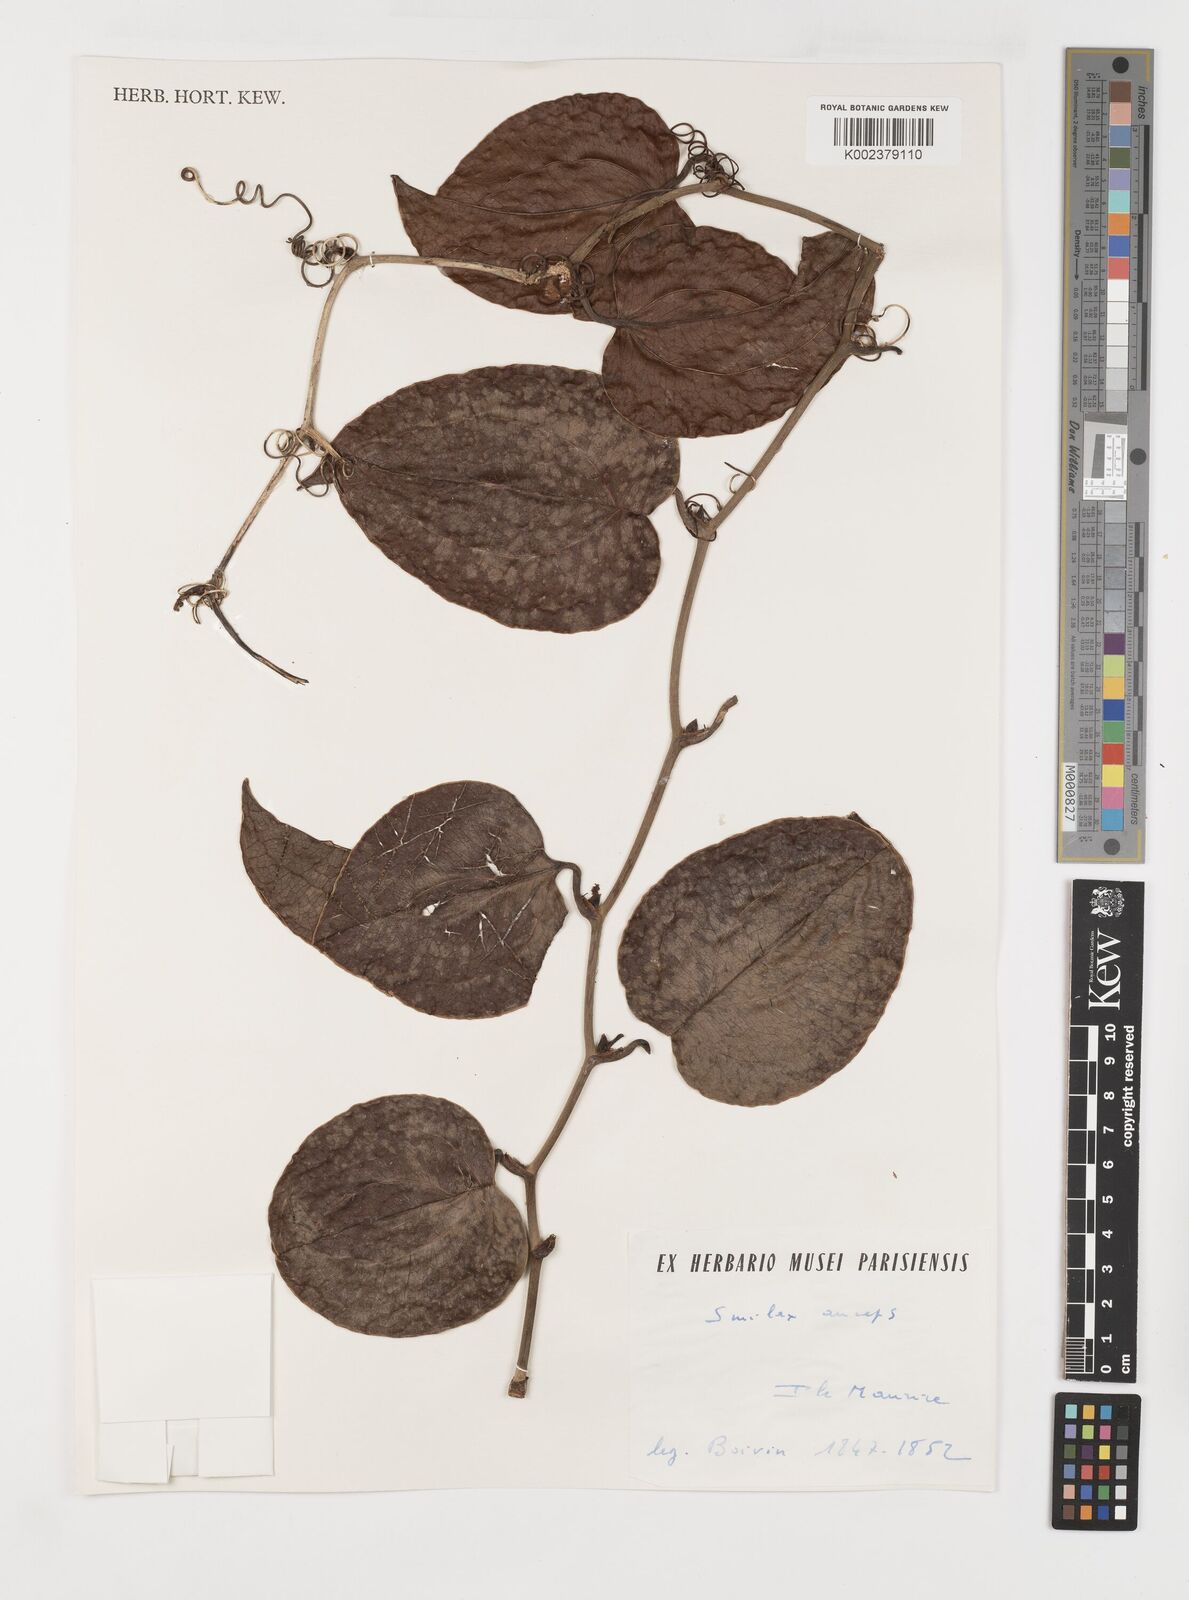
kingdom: Plantae
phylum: Tracheophyta
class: Liliopsida
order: Liliales
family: Smilacaceae
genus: Smilax
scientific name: Smilax anceps
